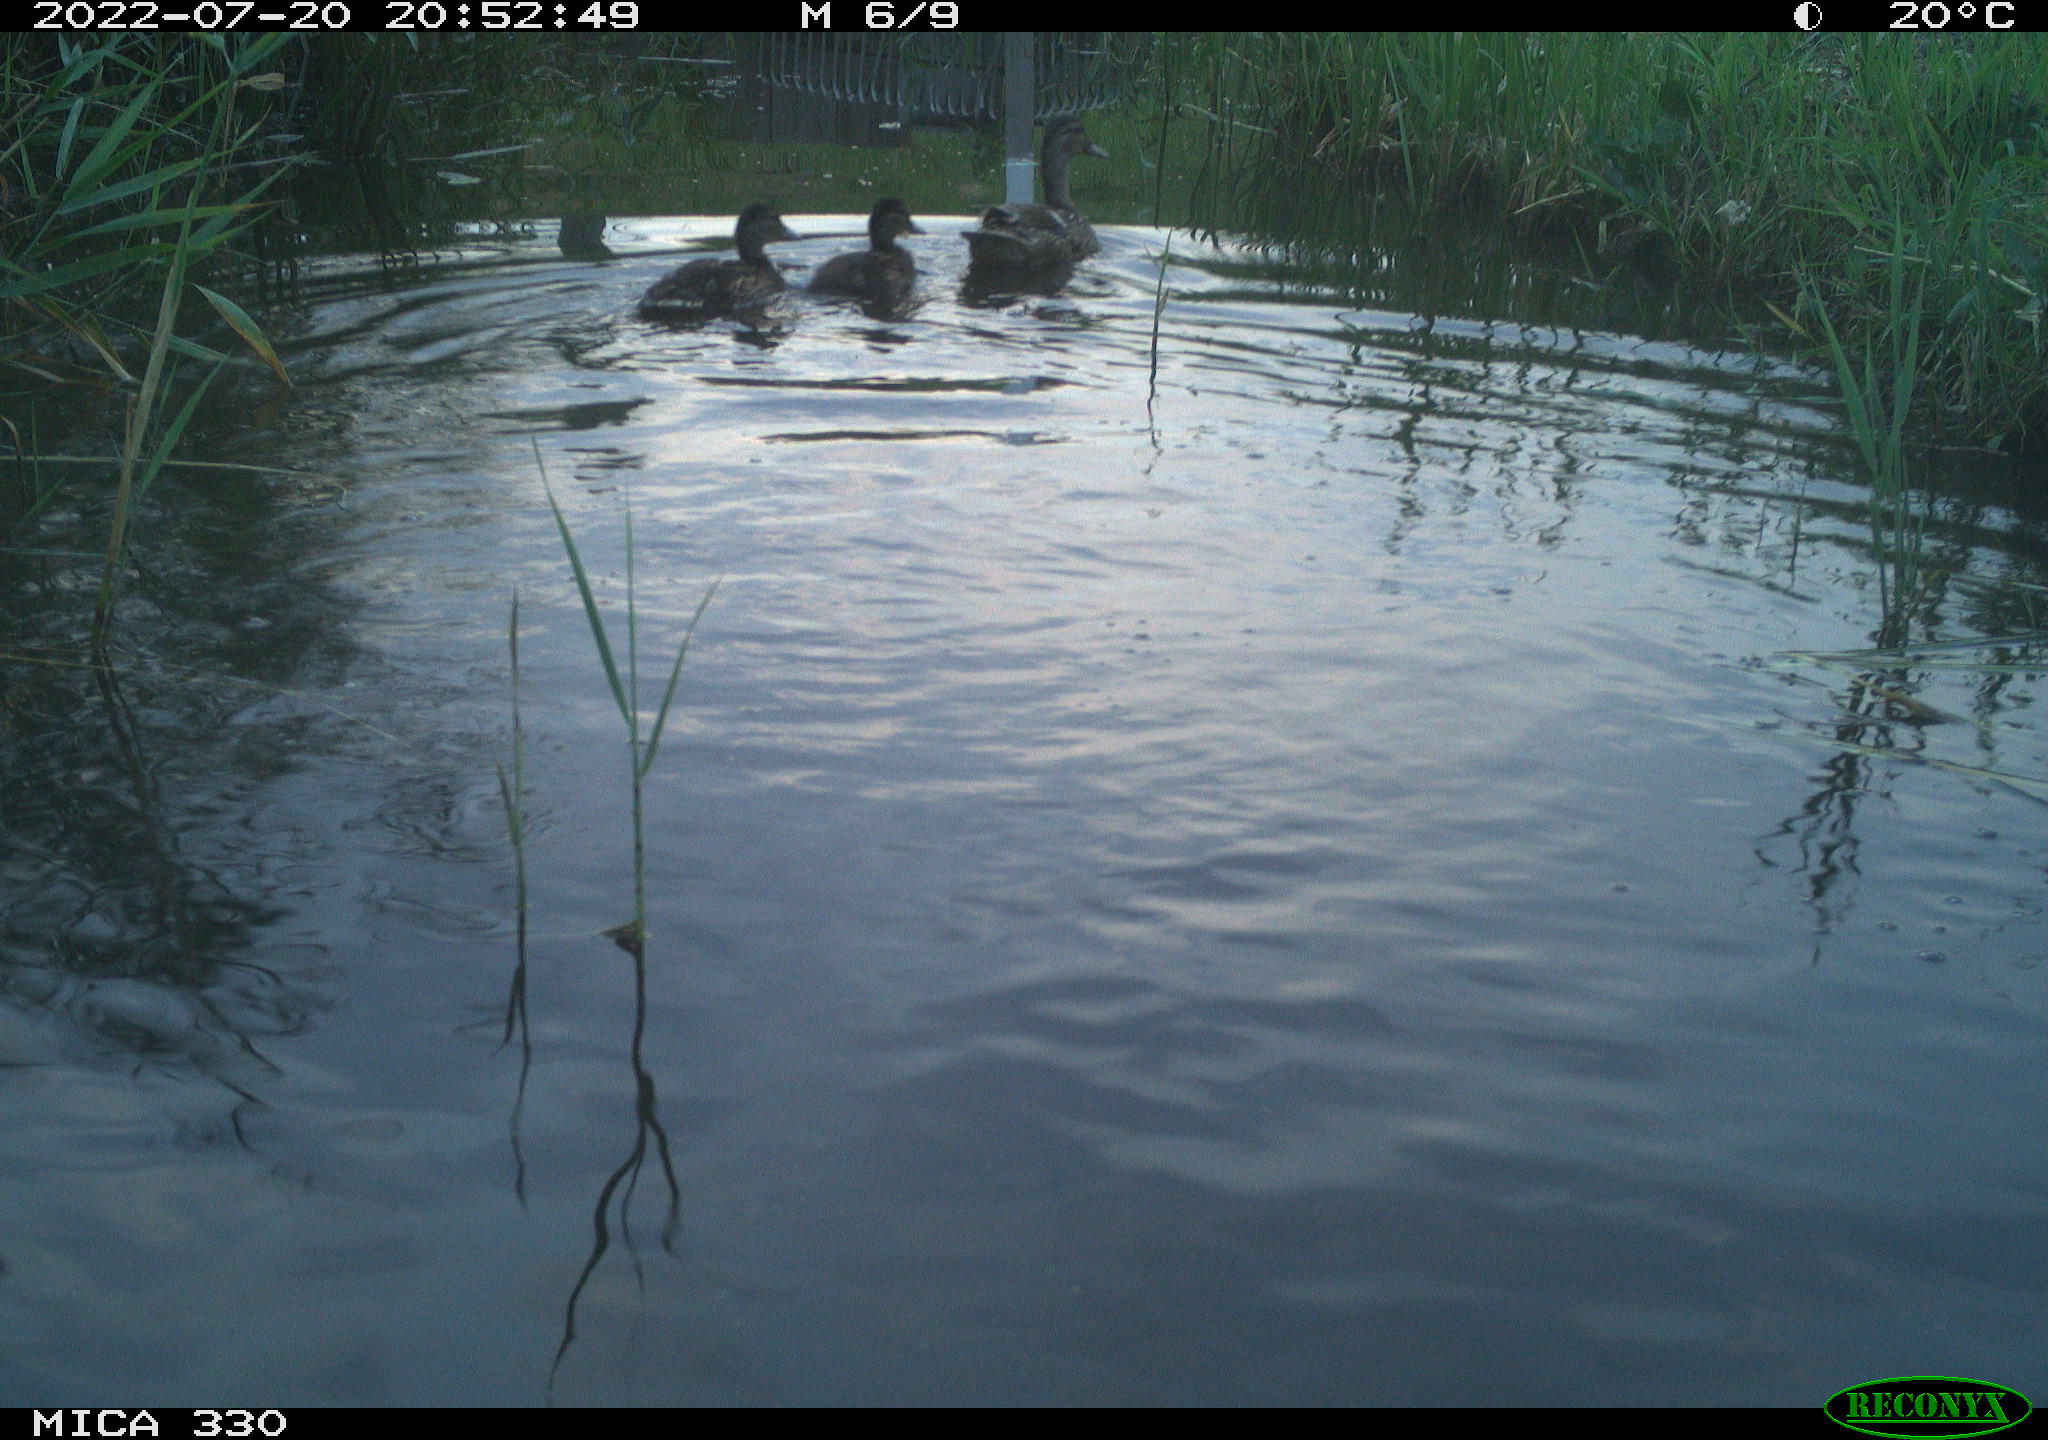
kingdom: Animalia
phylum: Chordata
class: Aves
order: Anseriformes
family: Anatidae
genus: Anas
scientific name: Anas platyrhynchos
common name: Mallard
